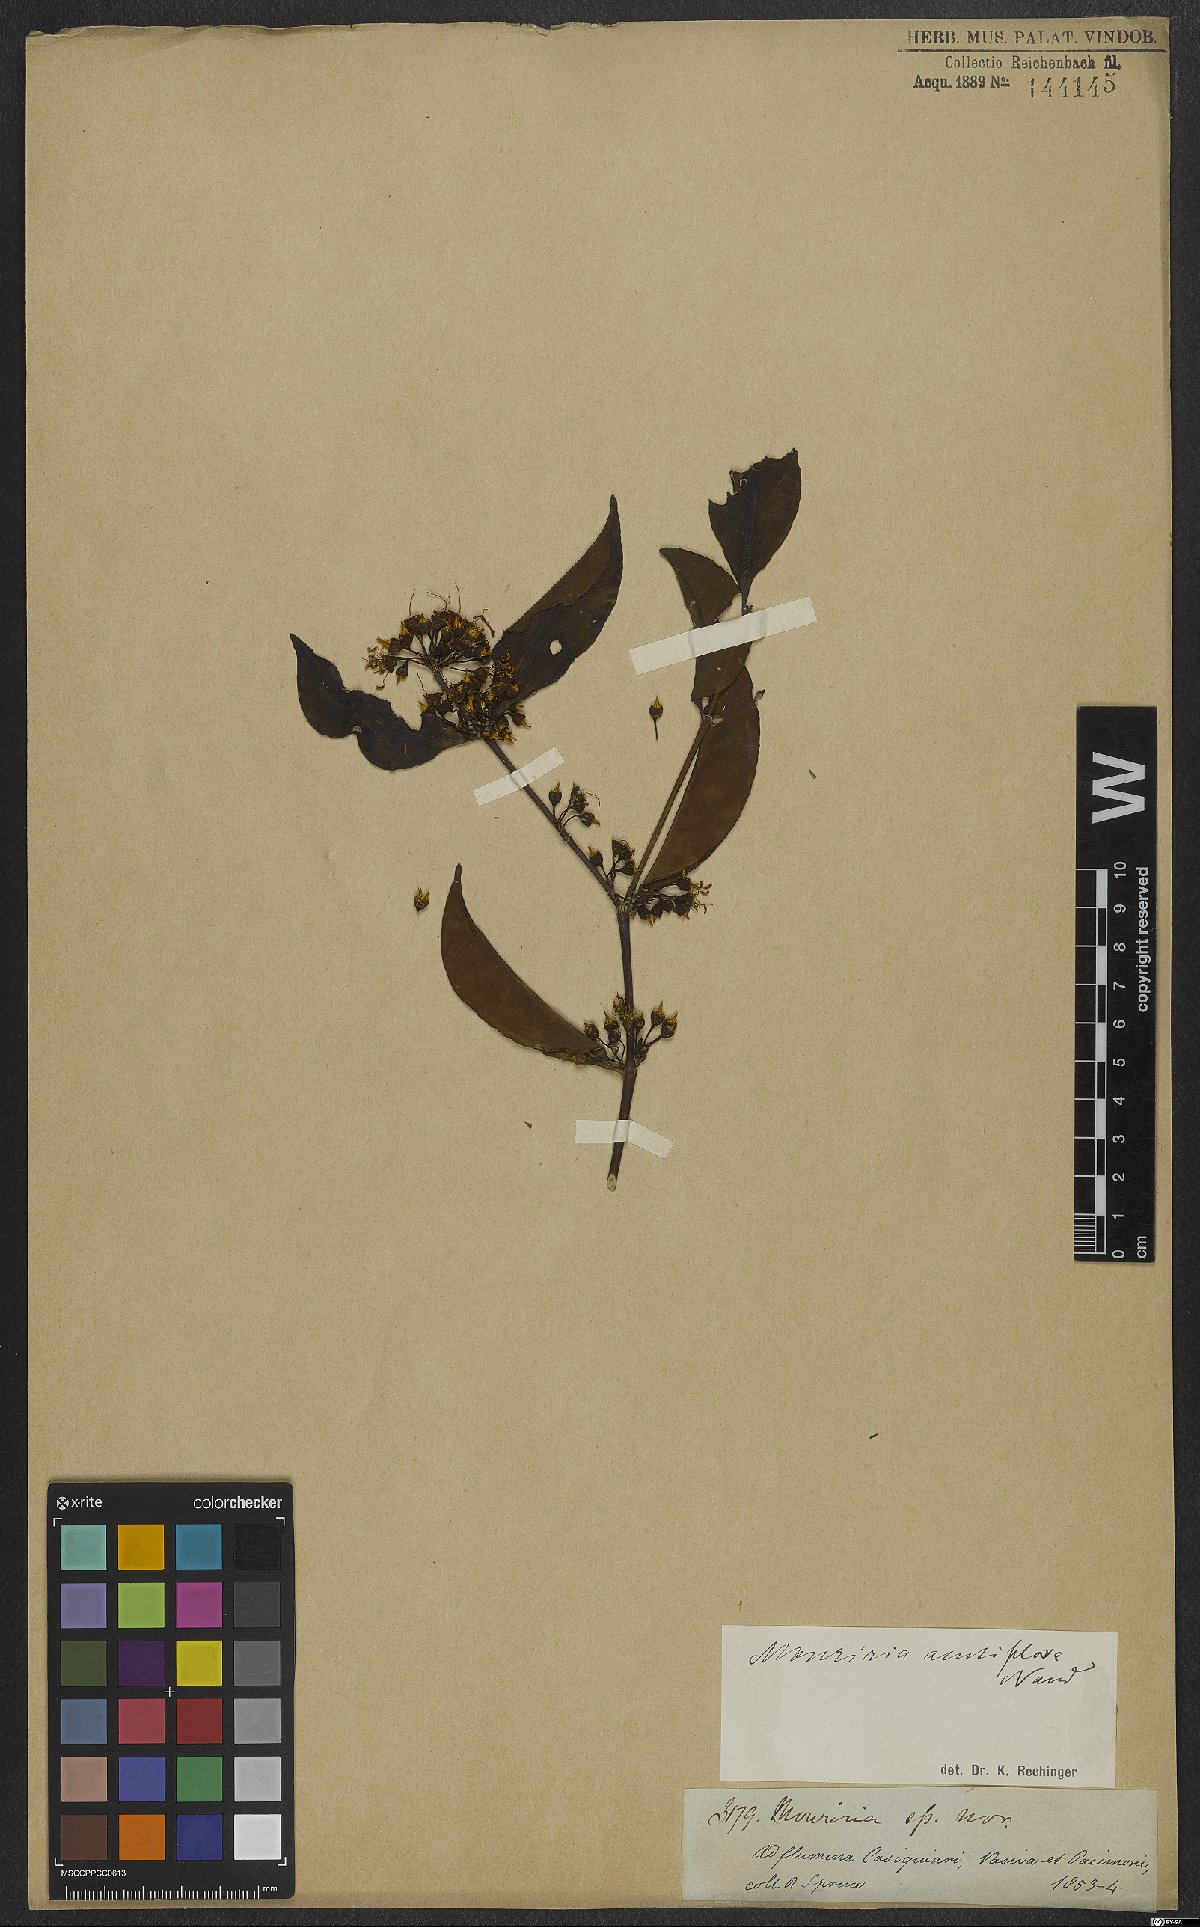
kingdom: Plantae
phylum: Tracheophyta
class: Magnoliopsida
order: Myrtales
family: Melastomataceae
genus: Mouriri
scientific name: Mouriri acutiflora
